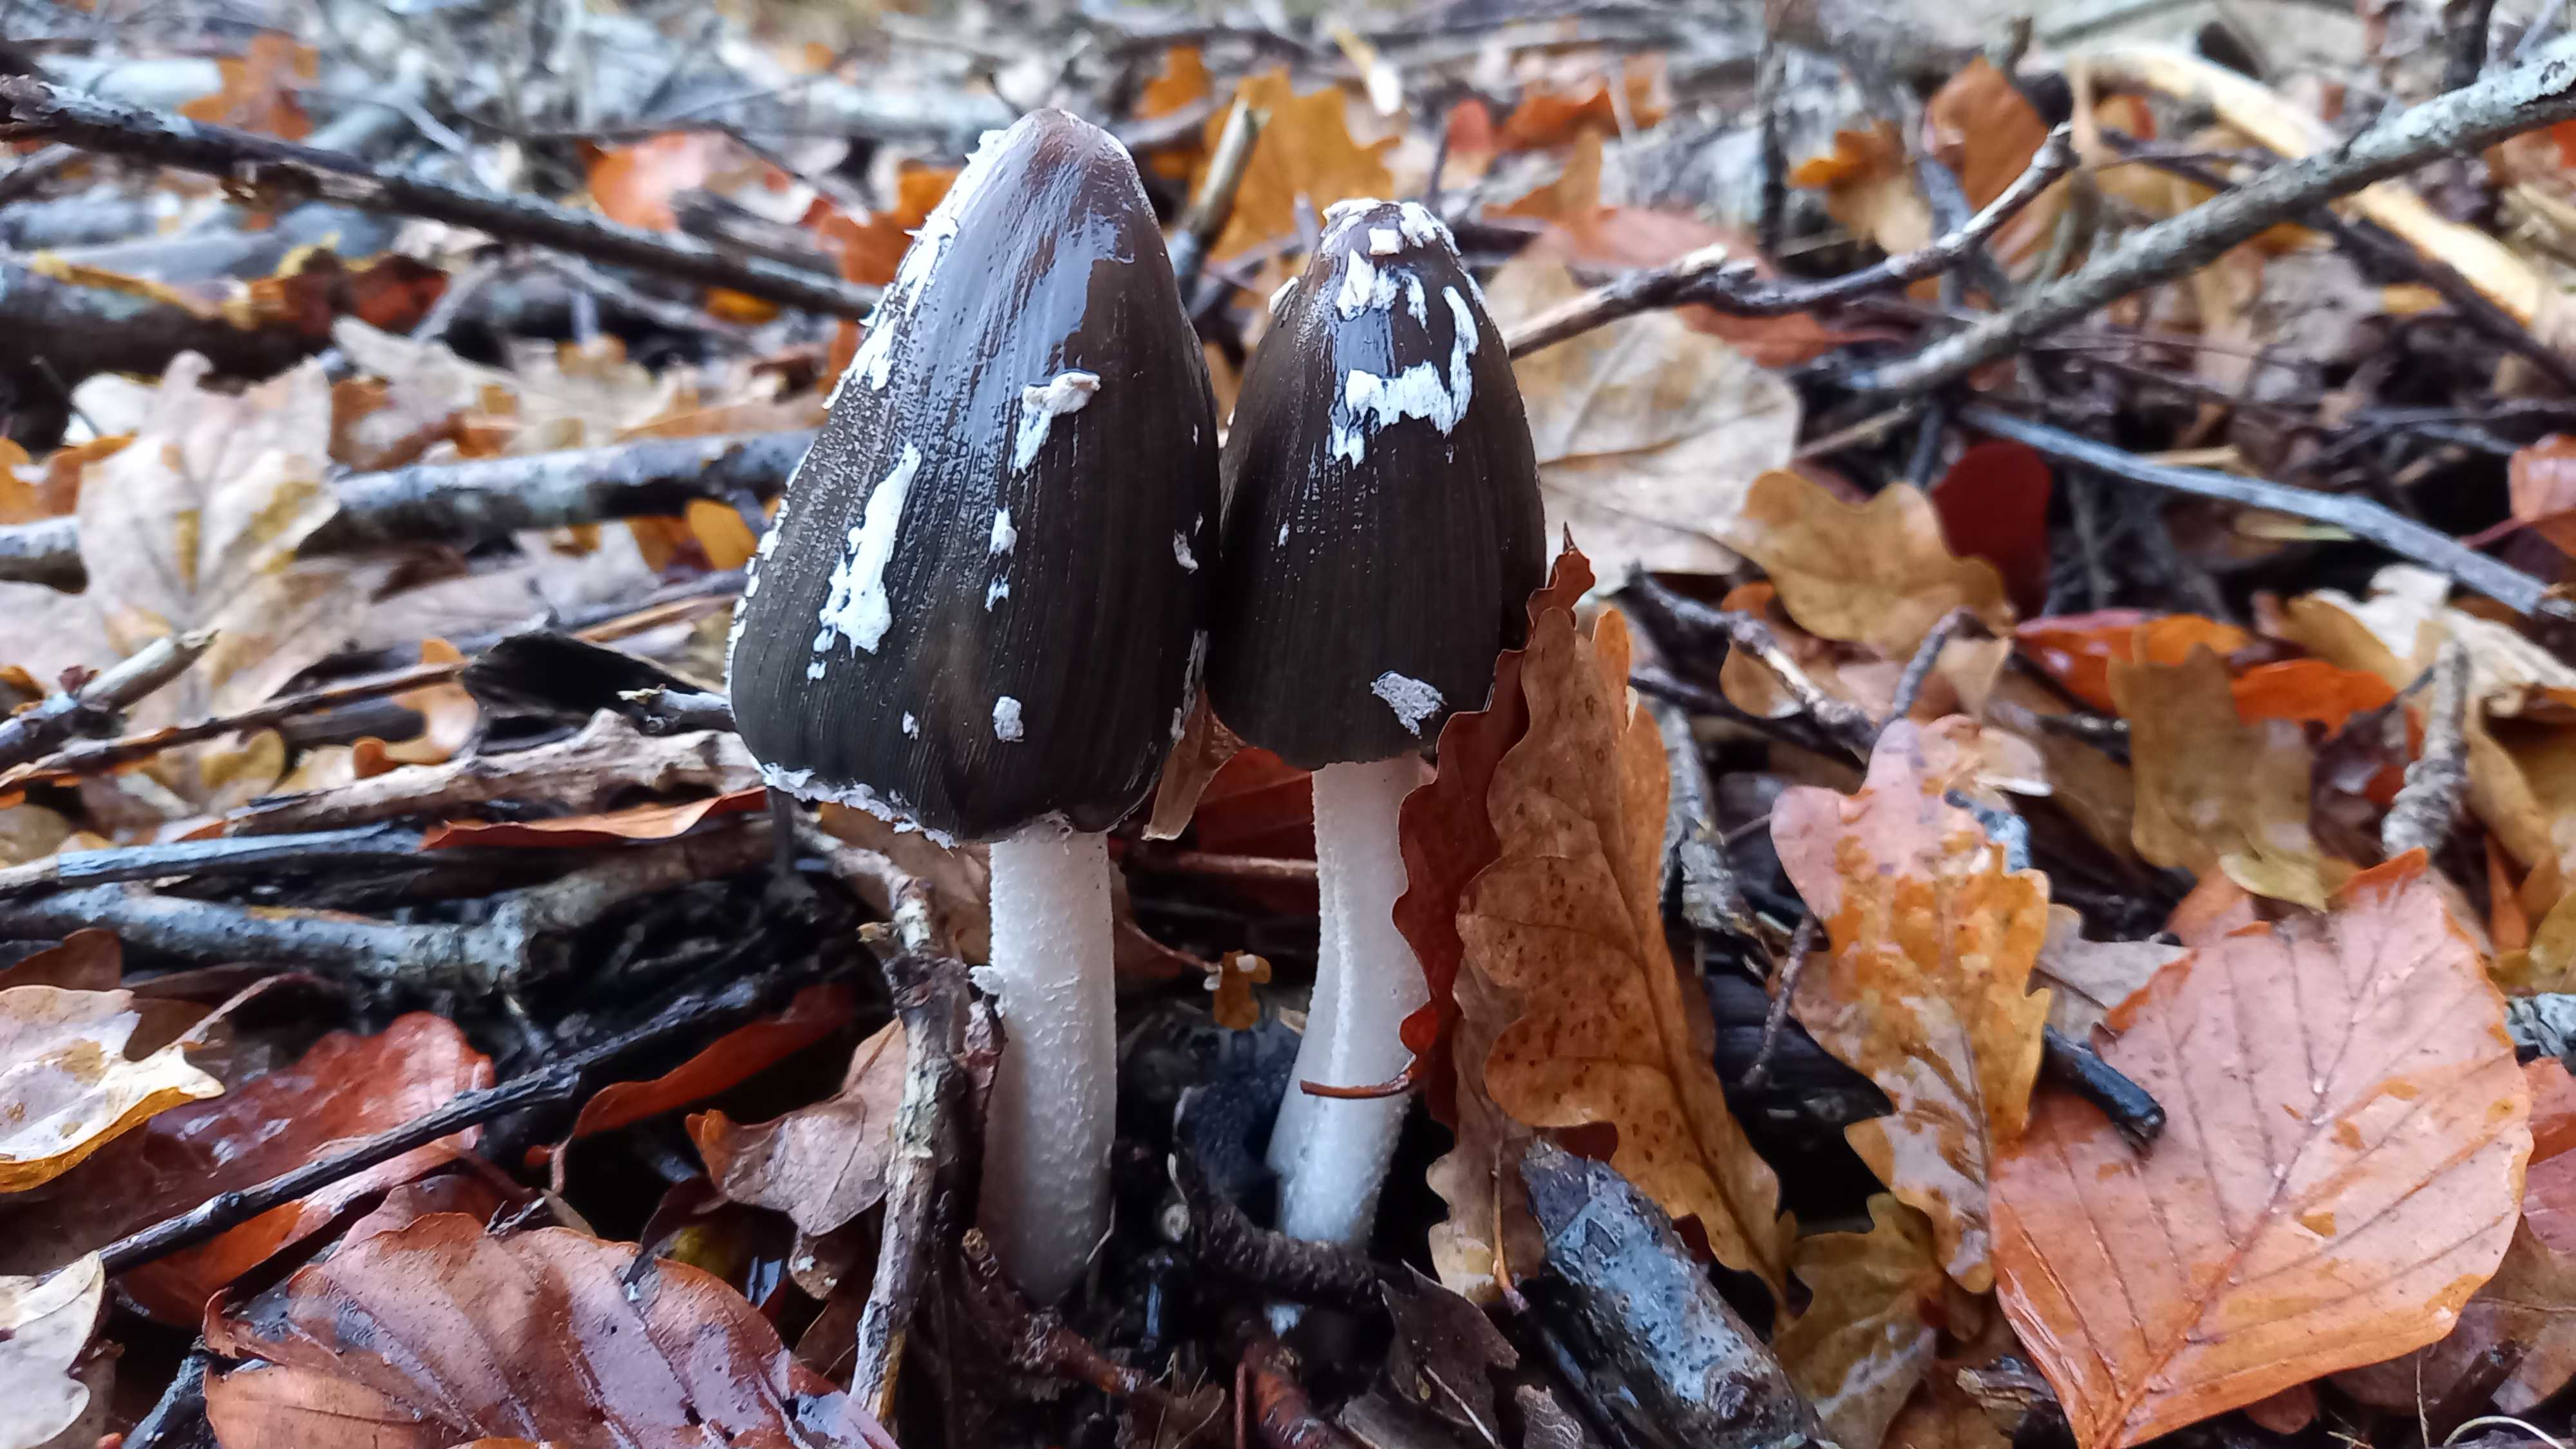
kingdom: Fungi
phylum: Basidiomycota
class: Agaricomycetes
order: Agaricales
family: Psathyrellaceae
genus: Coprinopsis
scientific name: Coprinopsis picacea
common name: skade-blækhat
